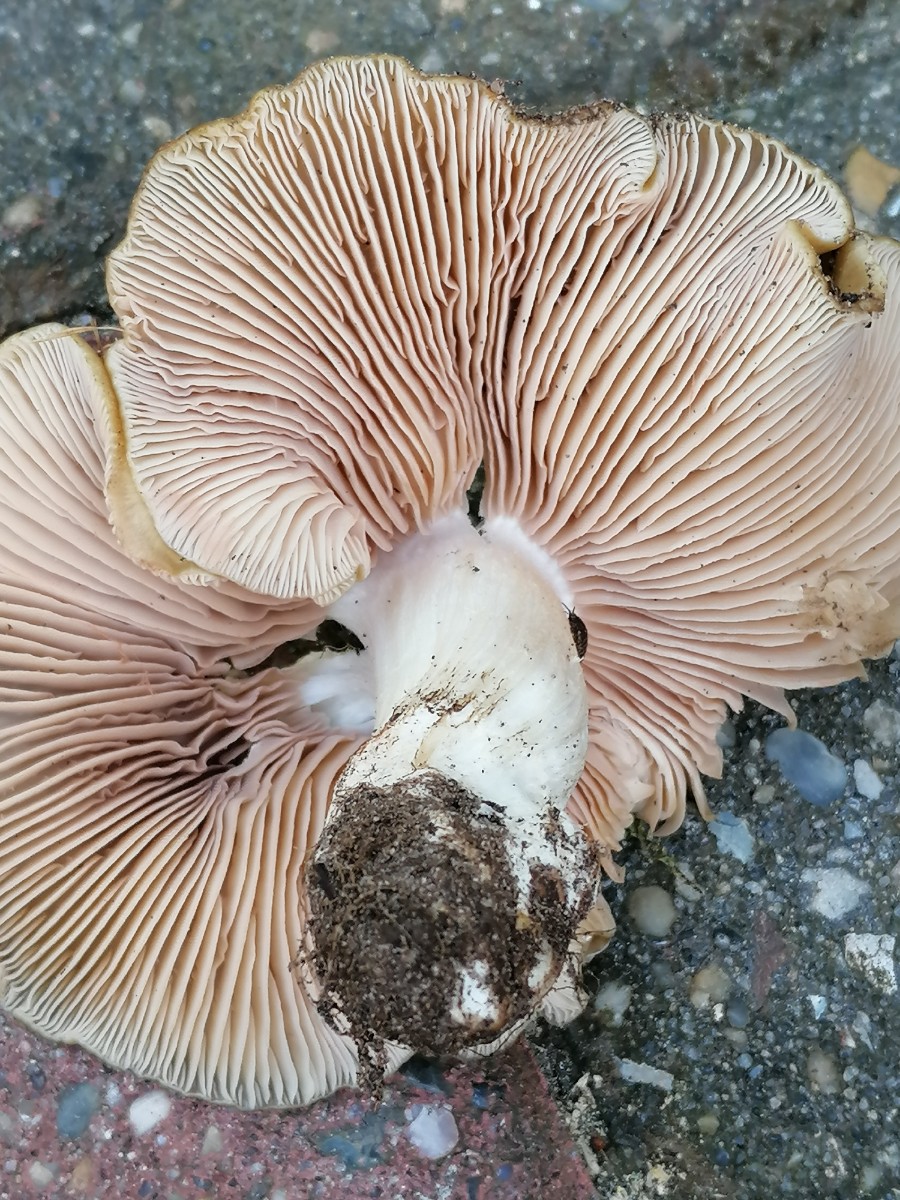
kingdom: Fungi
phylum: Basidiomycota
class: Agaricomycetes
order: Agaricales
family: Entolomataceae
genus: Entoloma
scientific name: Entoloma clypeatum
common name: flammet rødblad
